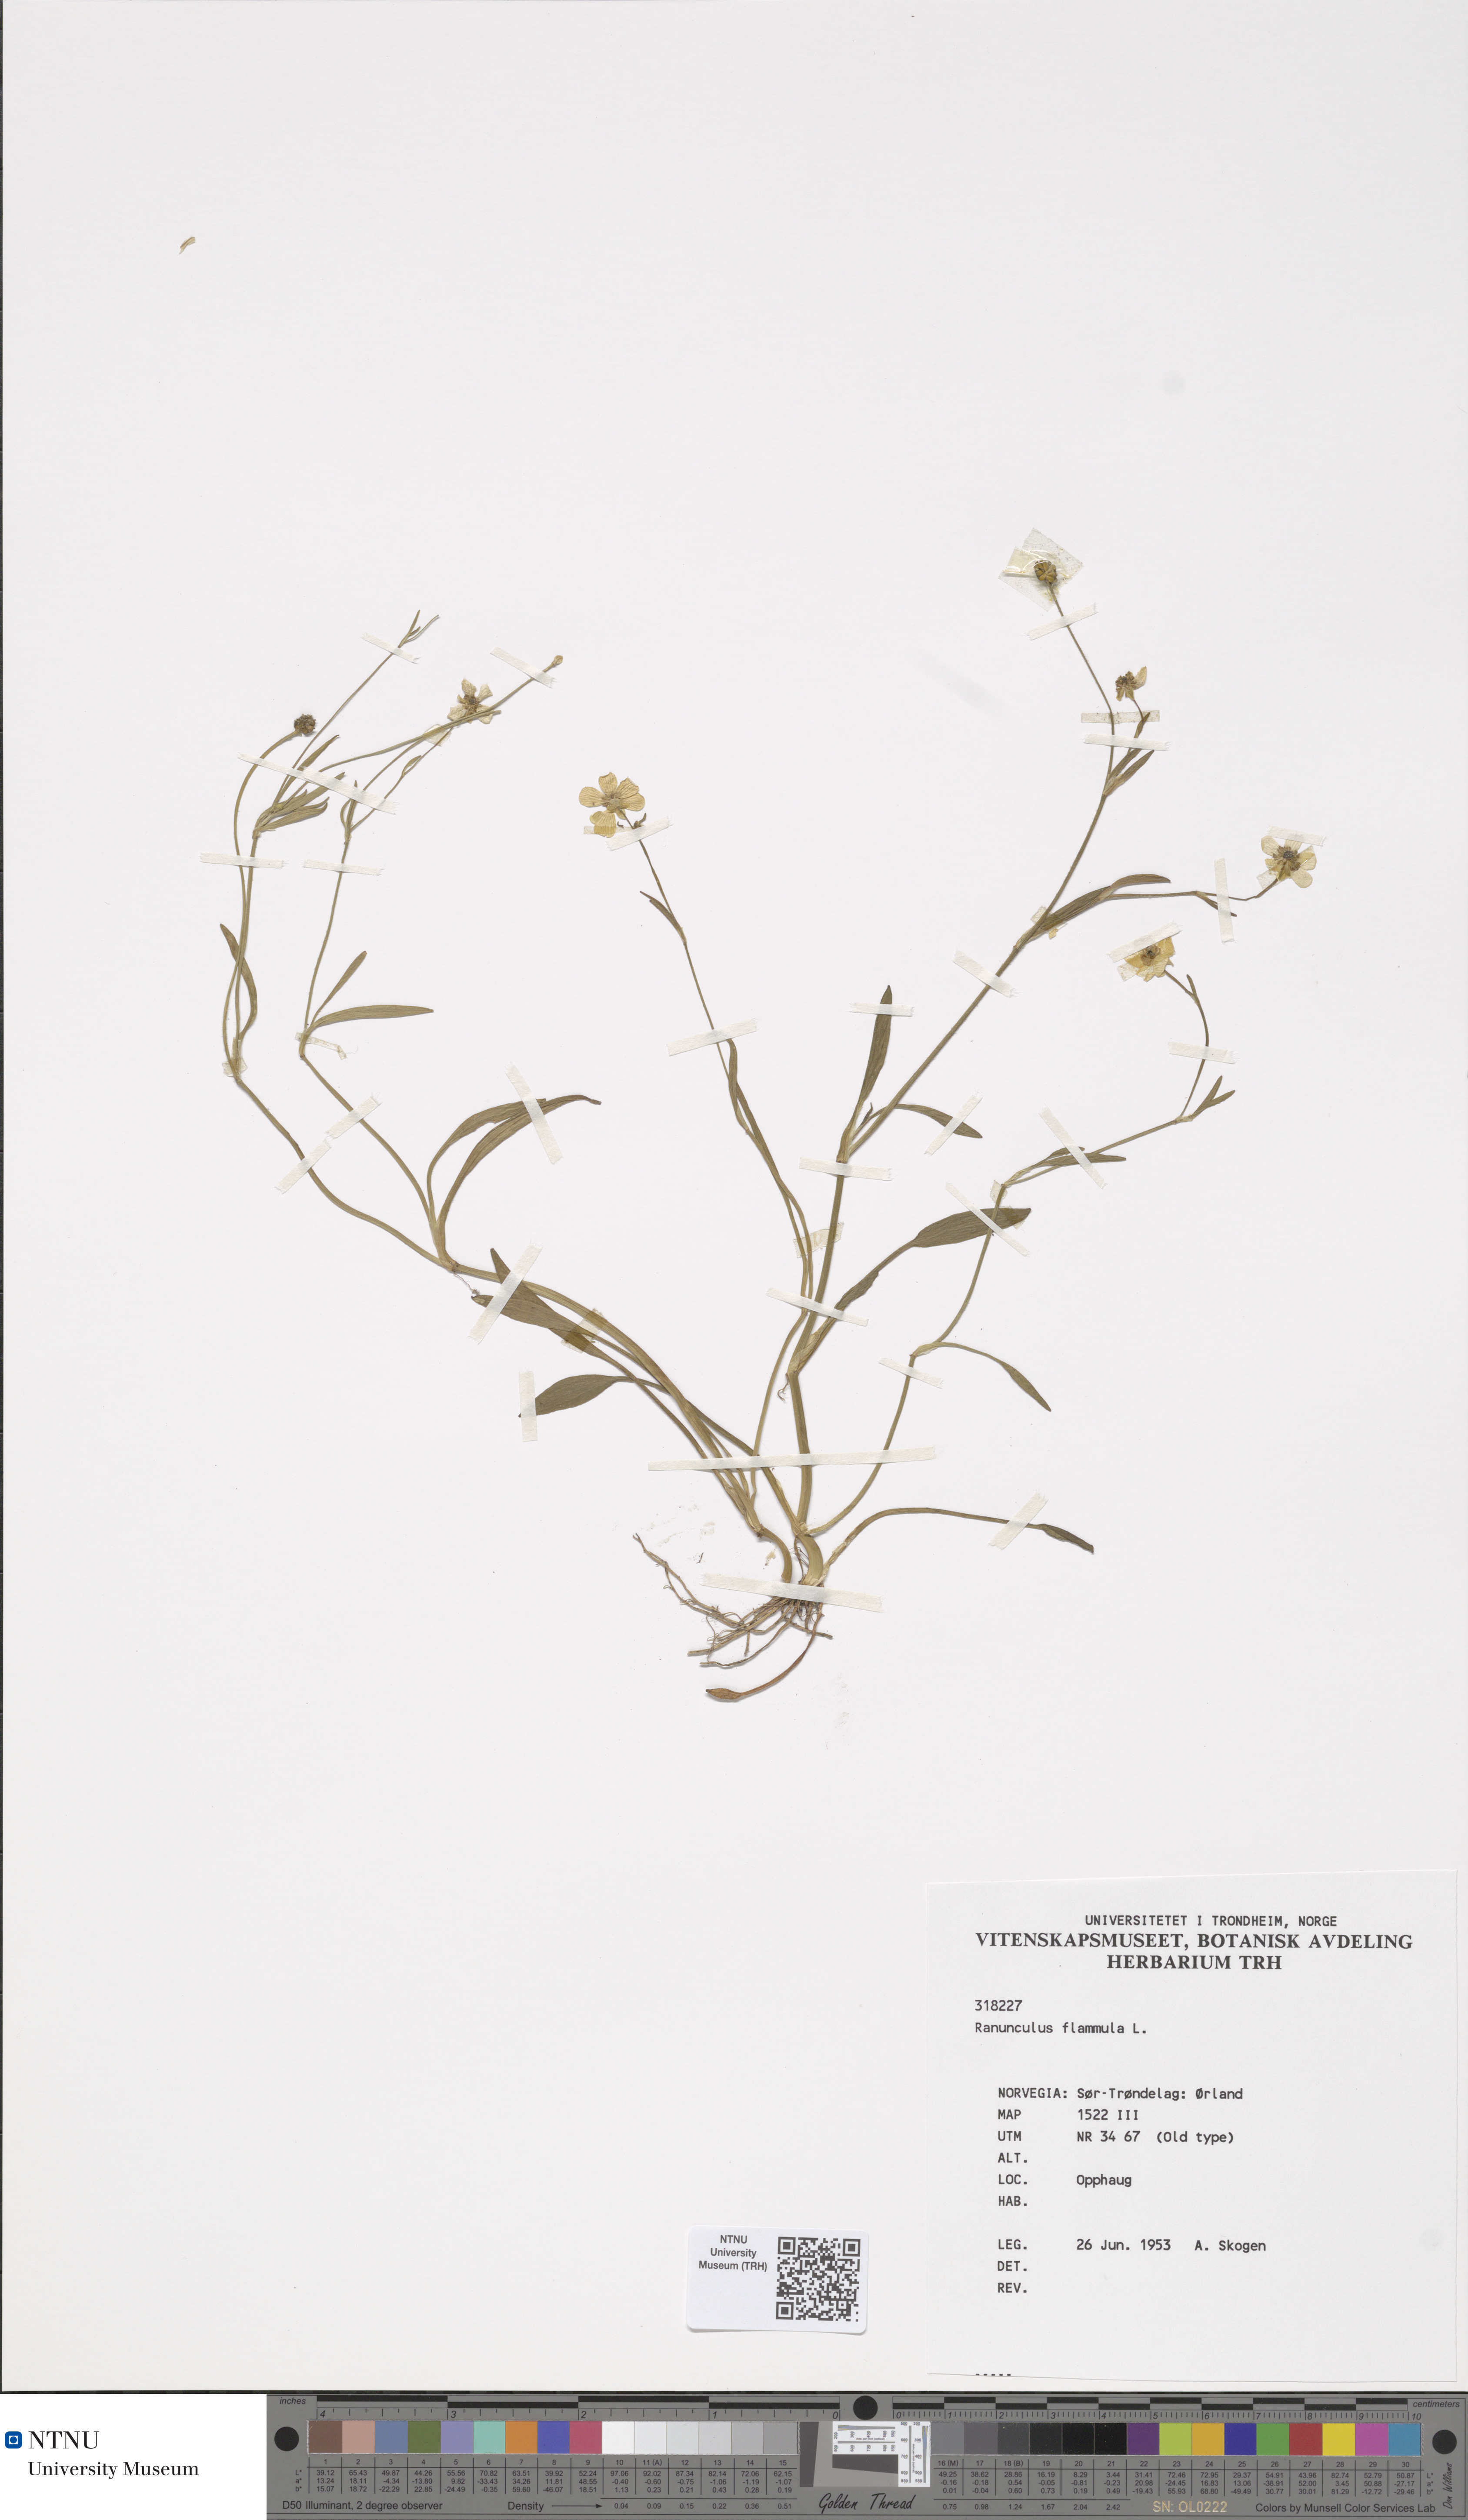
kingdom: Plantae
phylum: Tracheophyta
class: Magnoliopsida
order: Ranunculales
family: Ranunculaceae
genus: Ranunculus
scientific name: Ranunculus flammula
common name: Lesser spearwort
